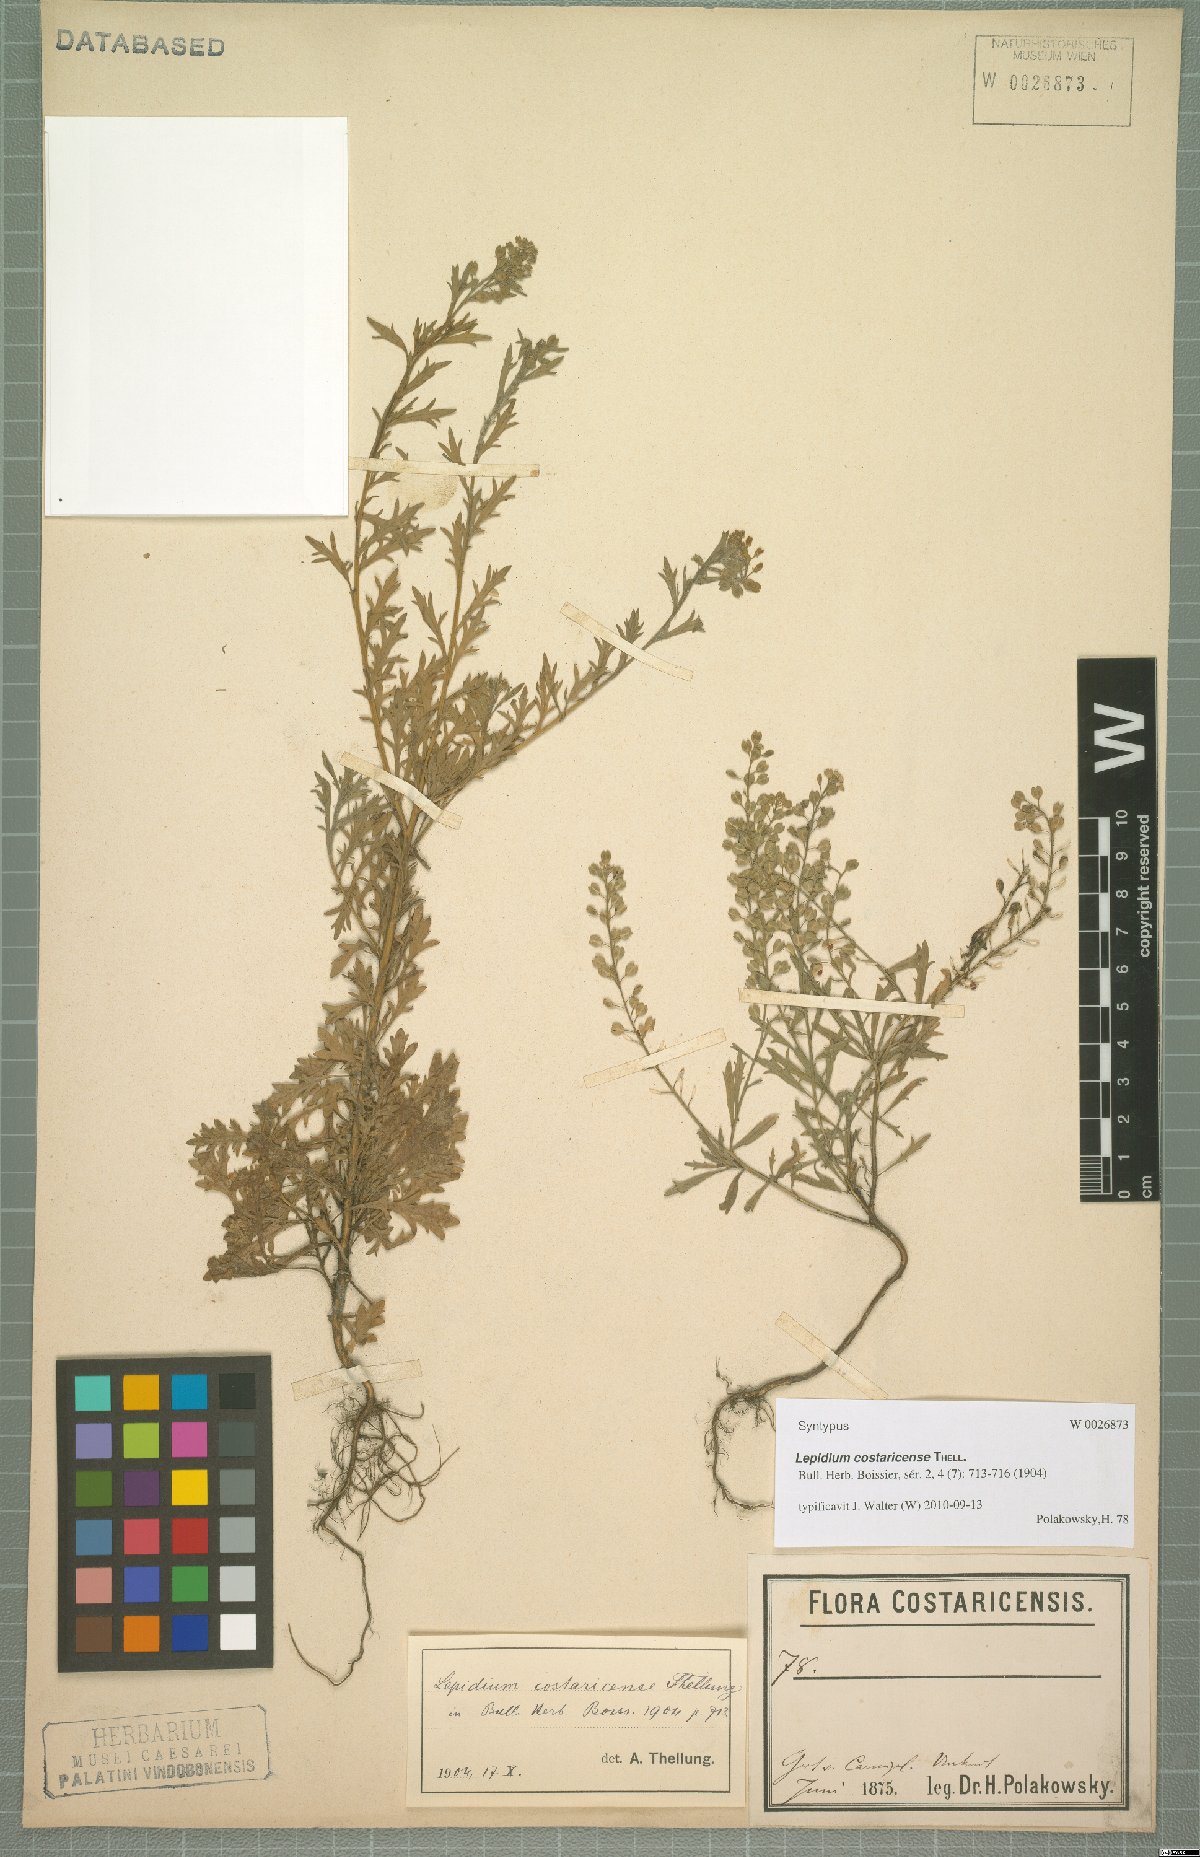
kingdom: Plantae
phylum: Tracheophyta
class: Magnoliopsida
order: Brassicales
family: Brassicaceae
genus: Lepidium
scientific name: Lepidium costaricense
